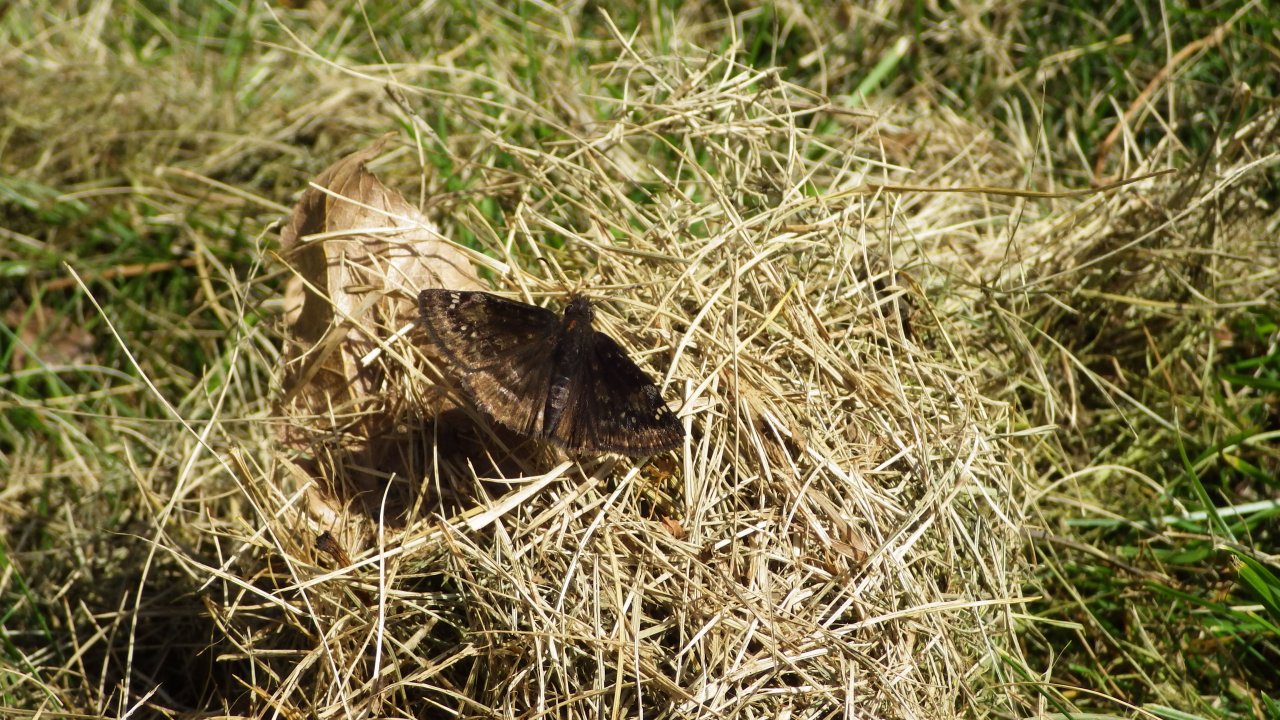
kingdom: Animalia
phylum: Arthropoda
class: Insecta
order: Lepidoptera
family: Hesperiidae
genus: Gesta
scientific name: Gesta
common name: Wild Indigo Duskywing
